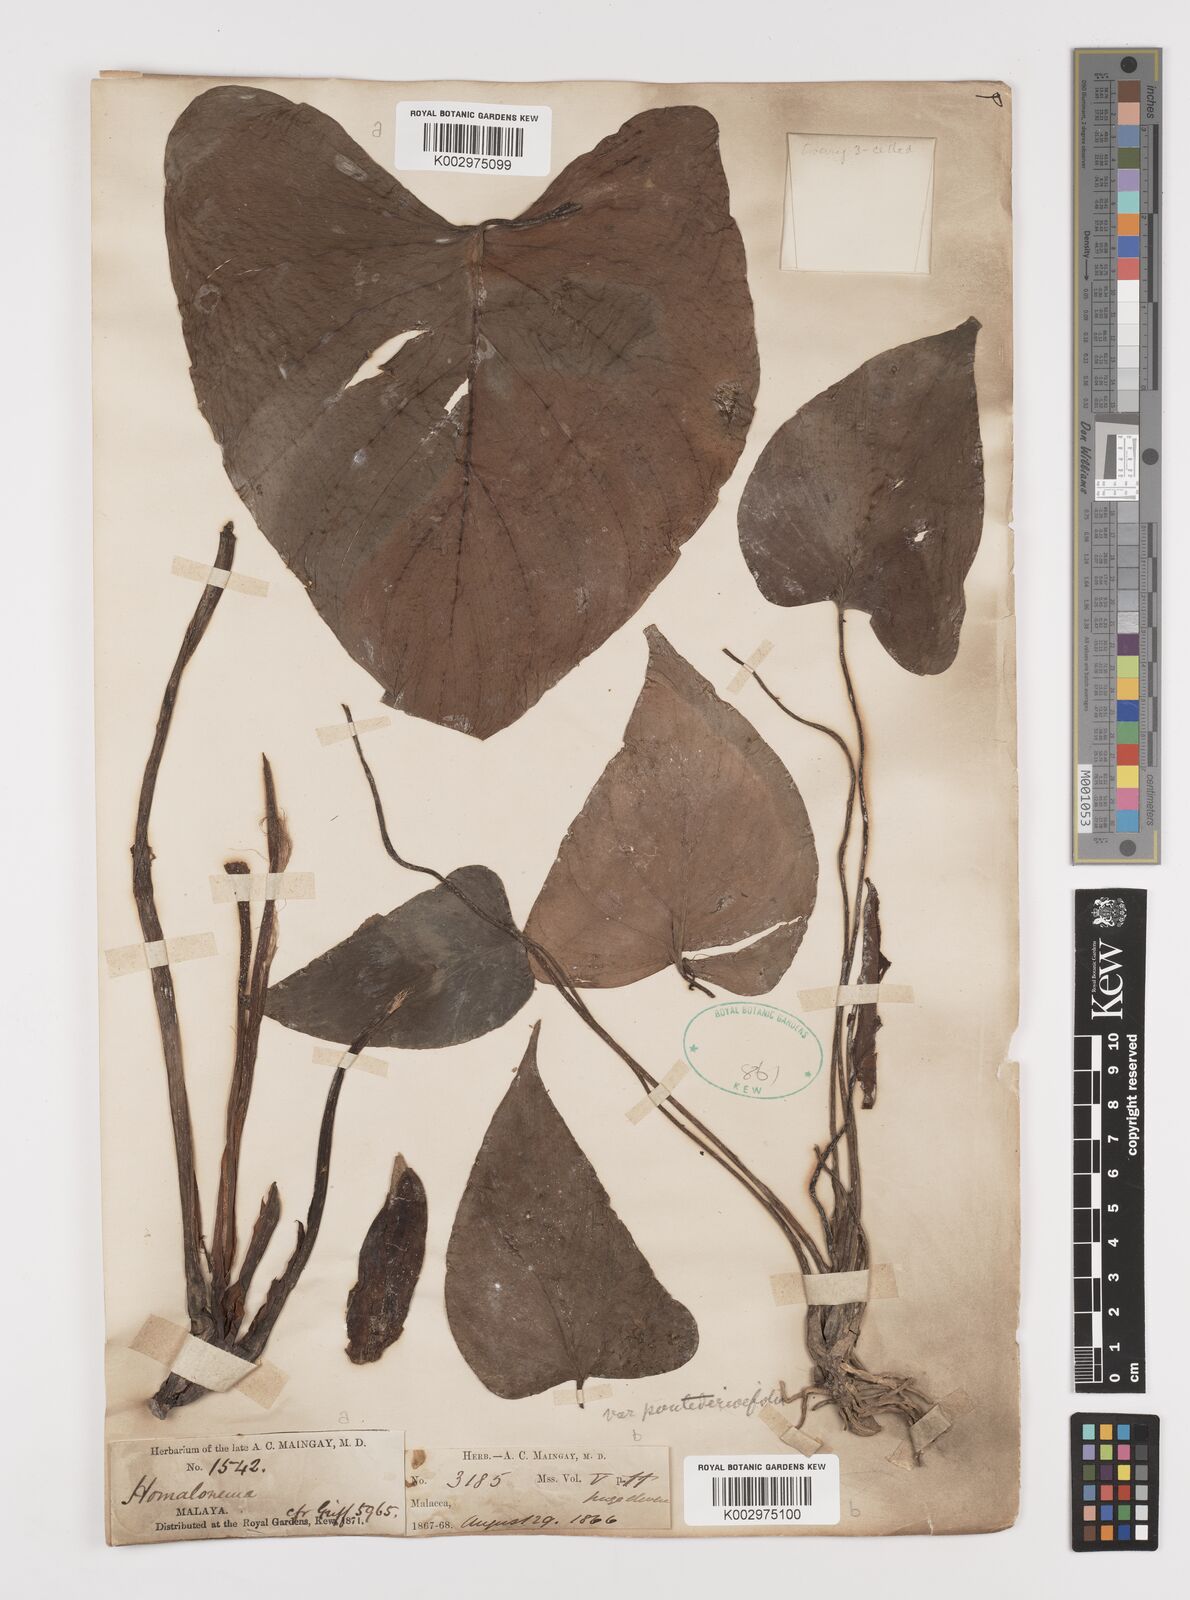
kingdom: Plantae
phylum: Tracheophyta
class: Liliopsida
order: Alismatales
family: Araceae
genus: Homalomena
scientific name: Homalomena pendula
